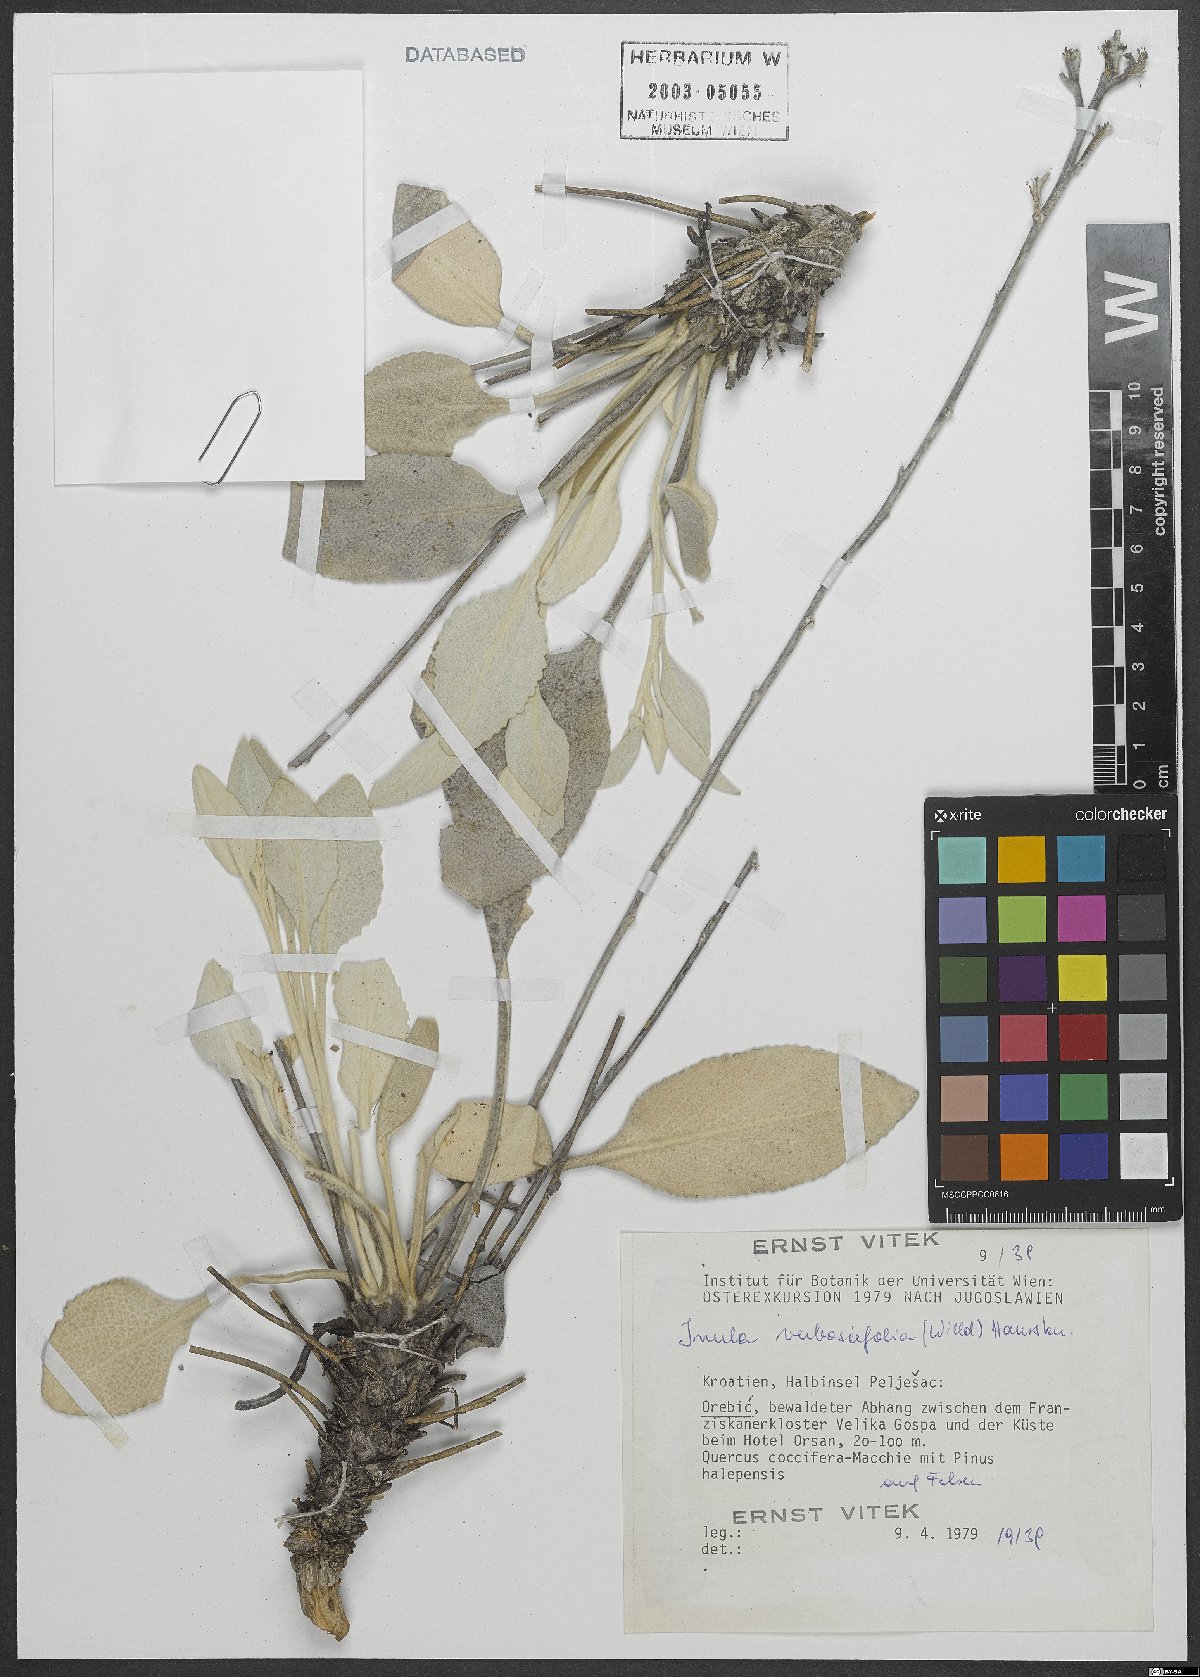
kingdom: Plantae
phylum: Tracheophyta
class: Magnoliopsida
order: Asterales
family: Asteraceae
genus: Pentanema
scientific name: Pentanema verbascifolium
